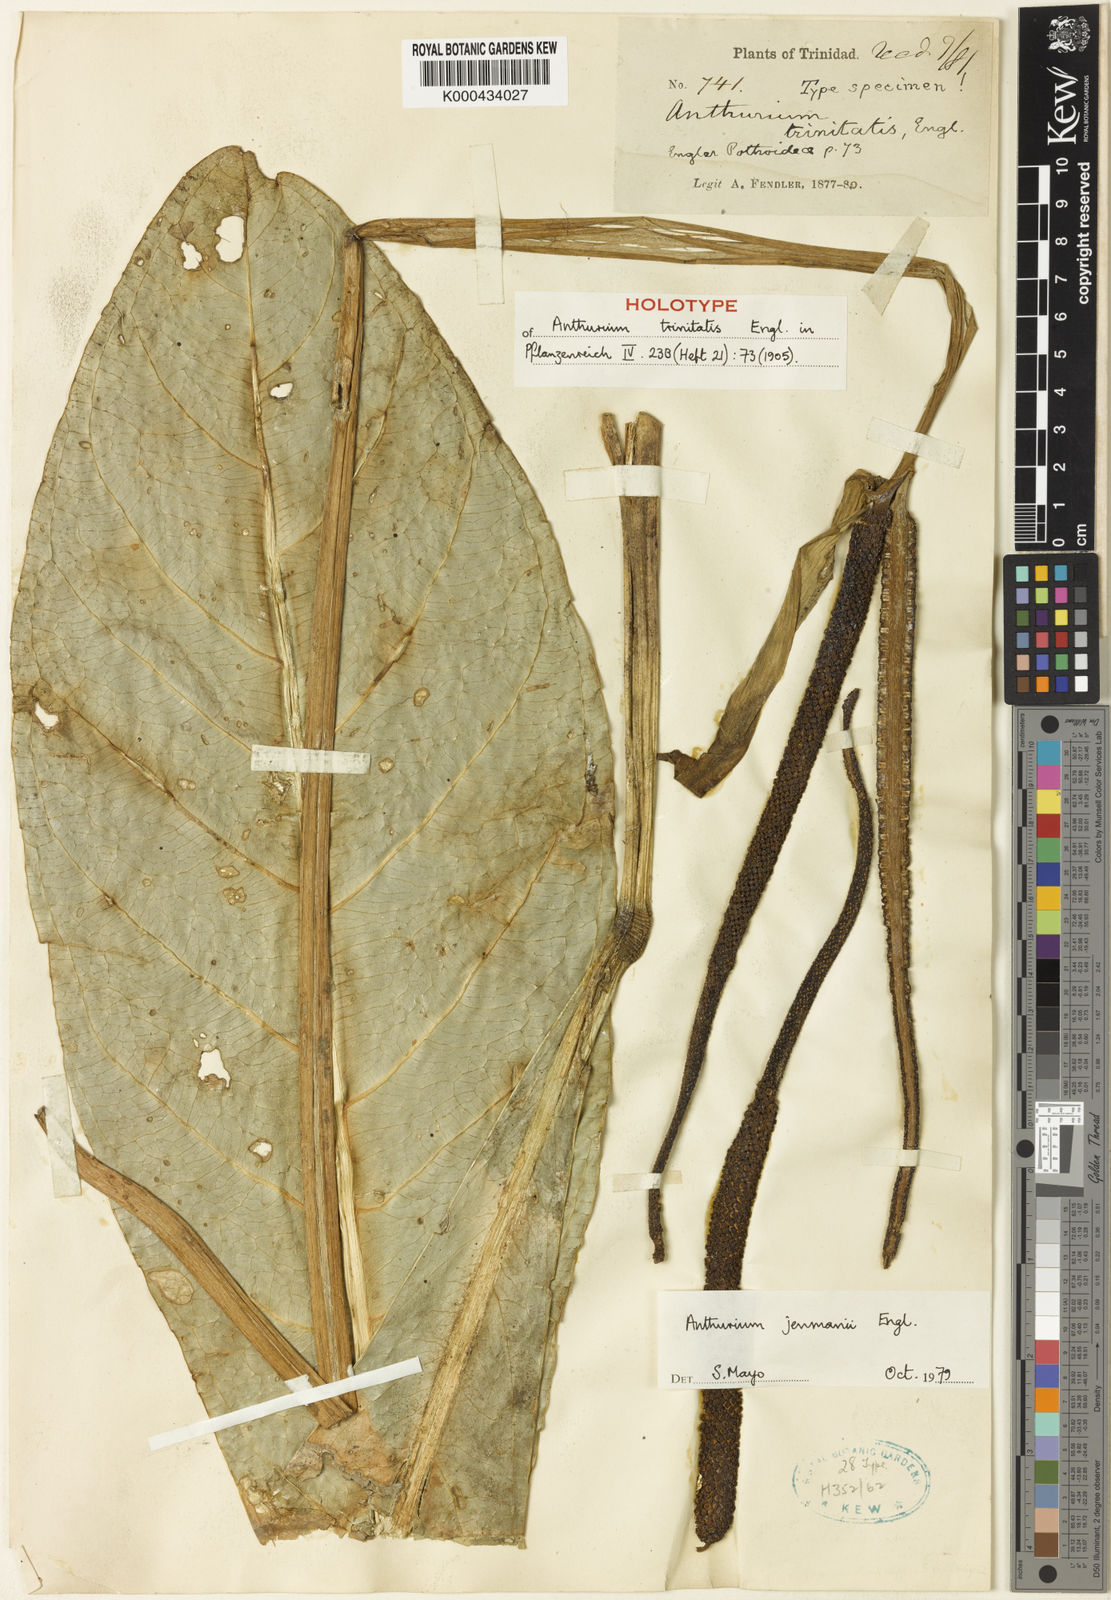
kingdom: Plantae
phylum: Tracheophyta
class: Liliopsida
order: Alismatales
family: Araceae
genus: Anthurium
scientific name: Anthurium jenmanii
